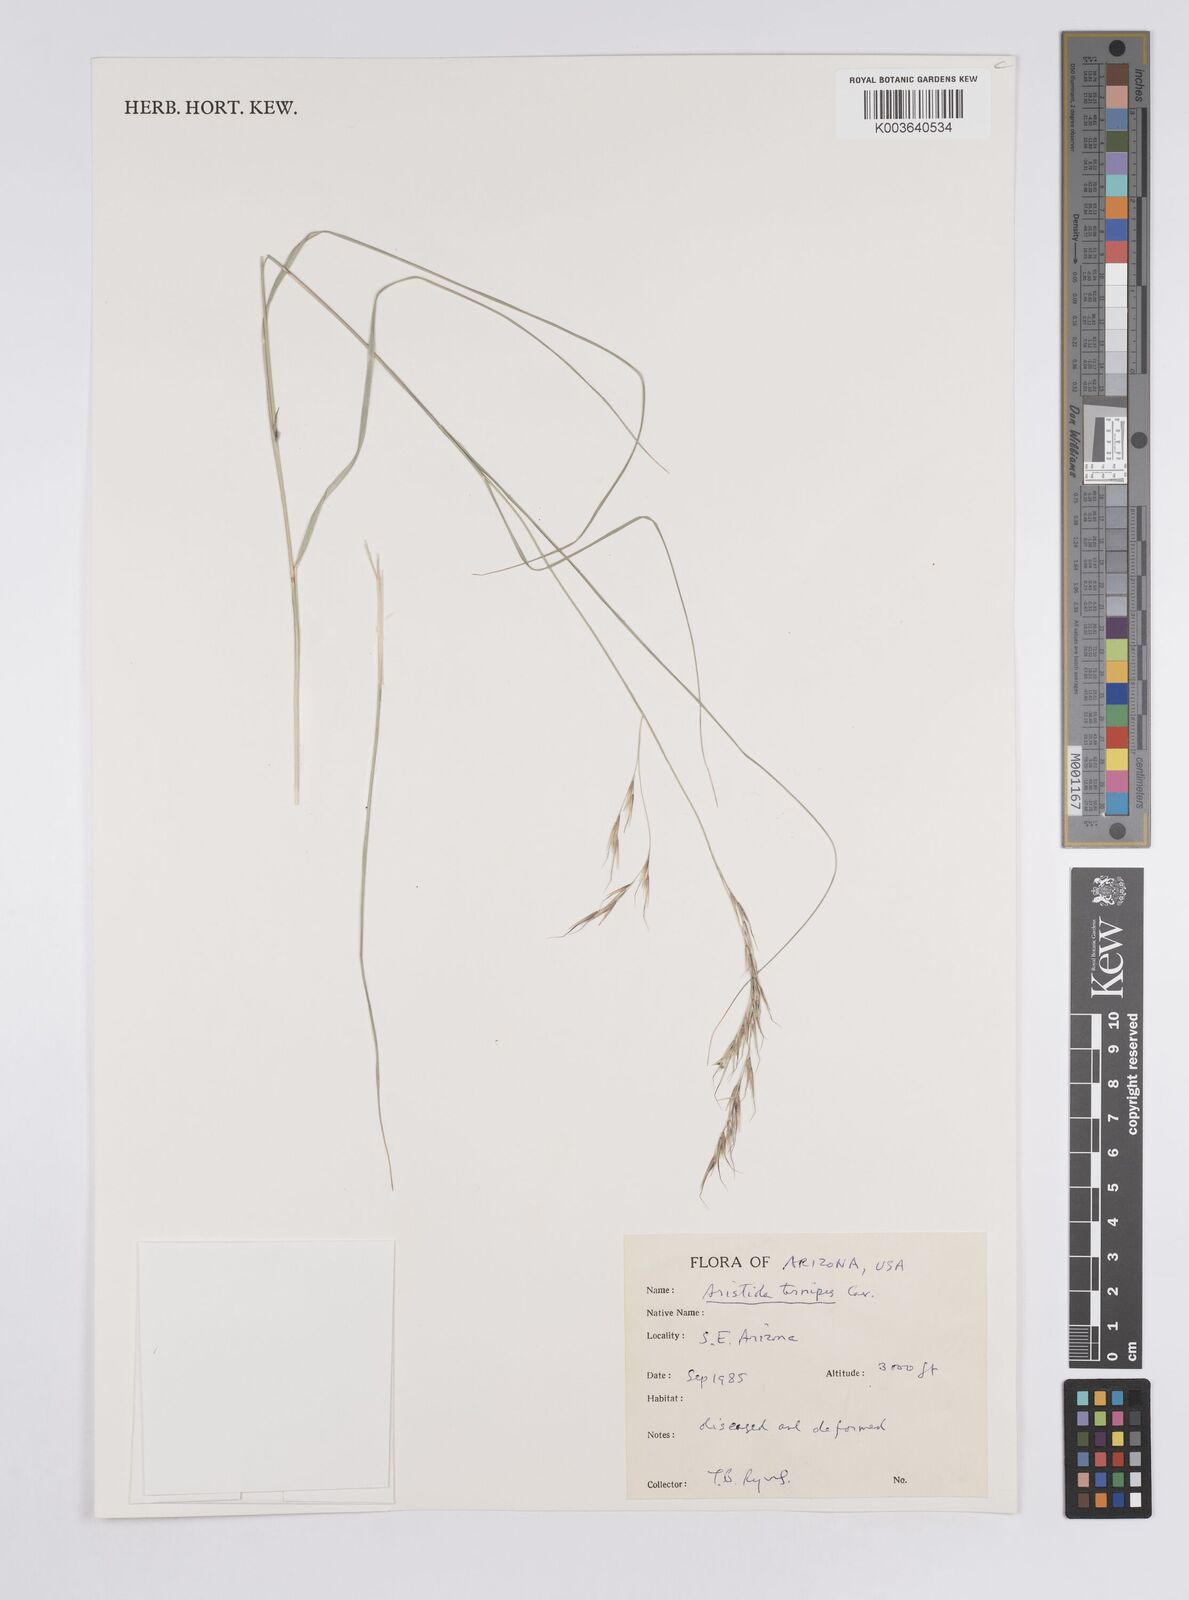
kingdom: Plantae
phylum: Tracheophyta
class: Liliopsida
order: Poales
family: Poaceae
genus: Aristida
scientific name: Aristida ternipes
